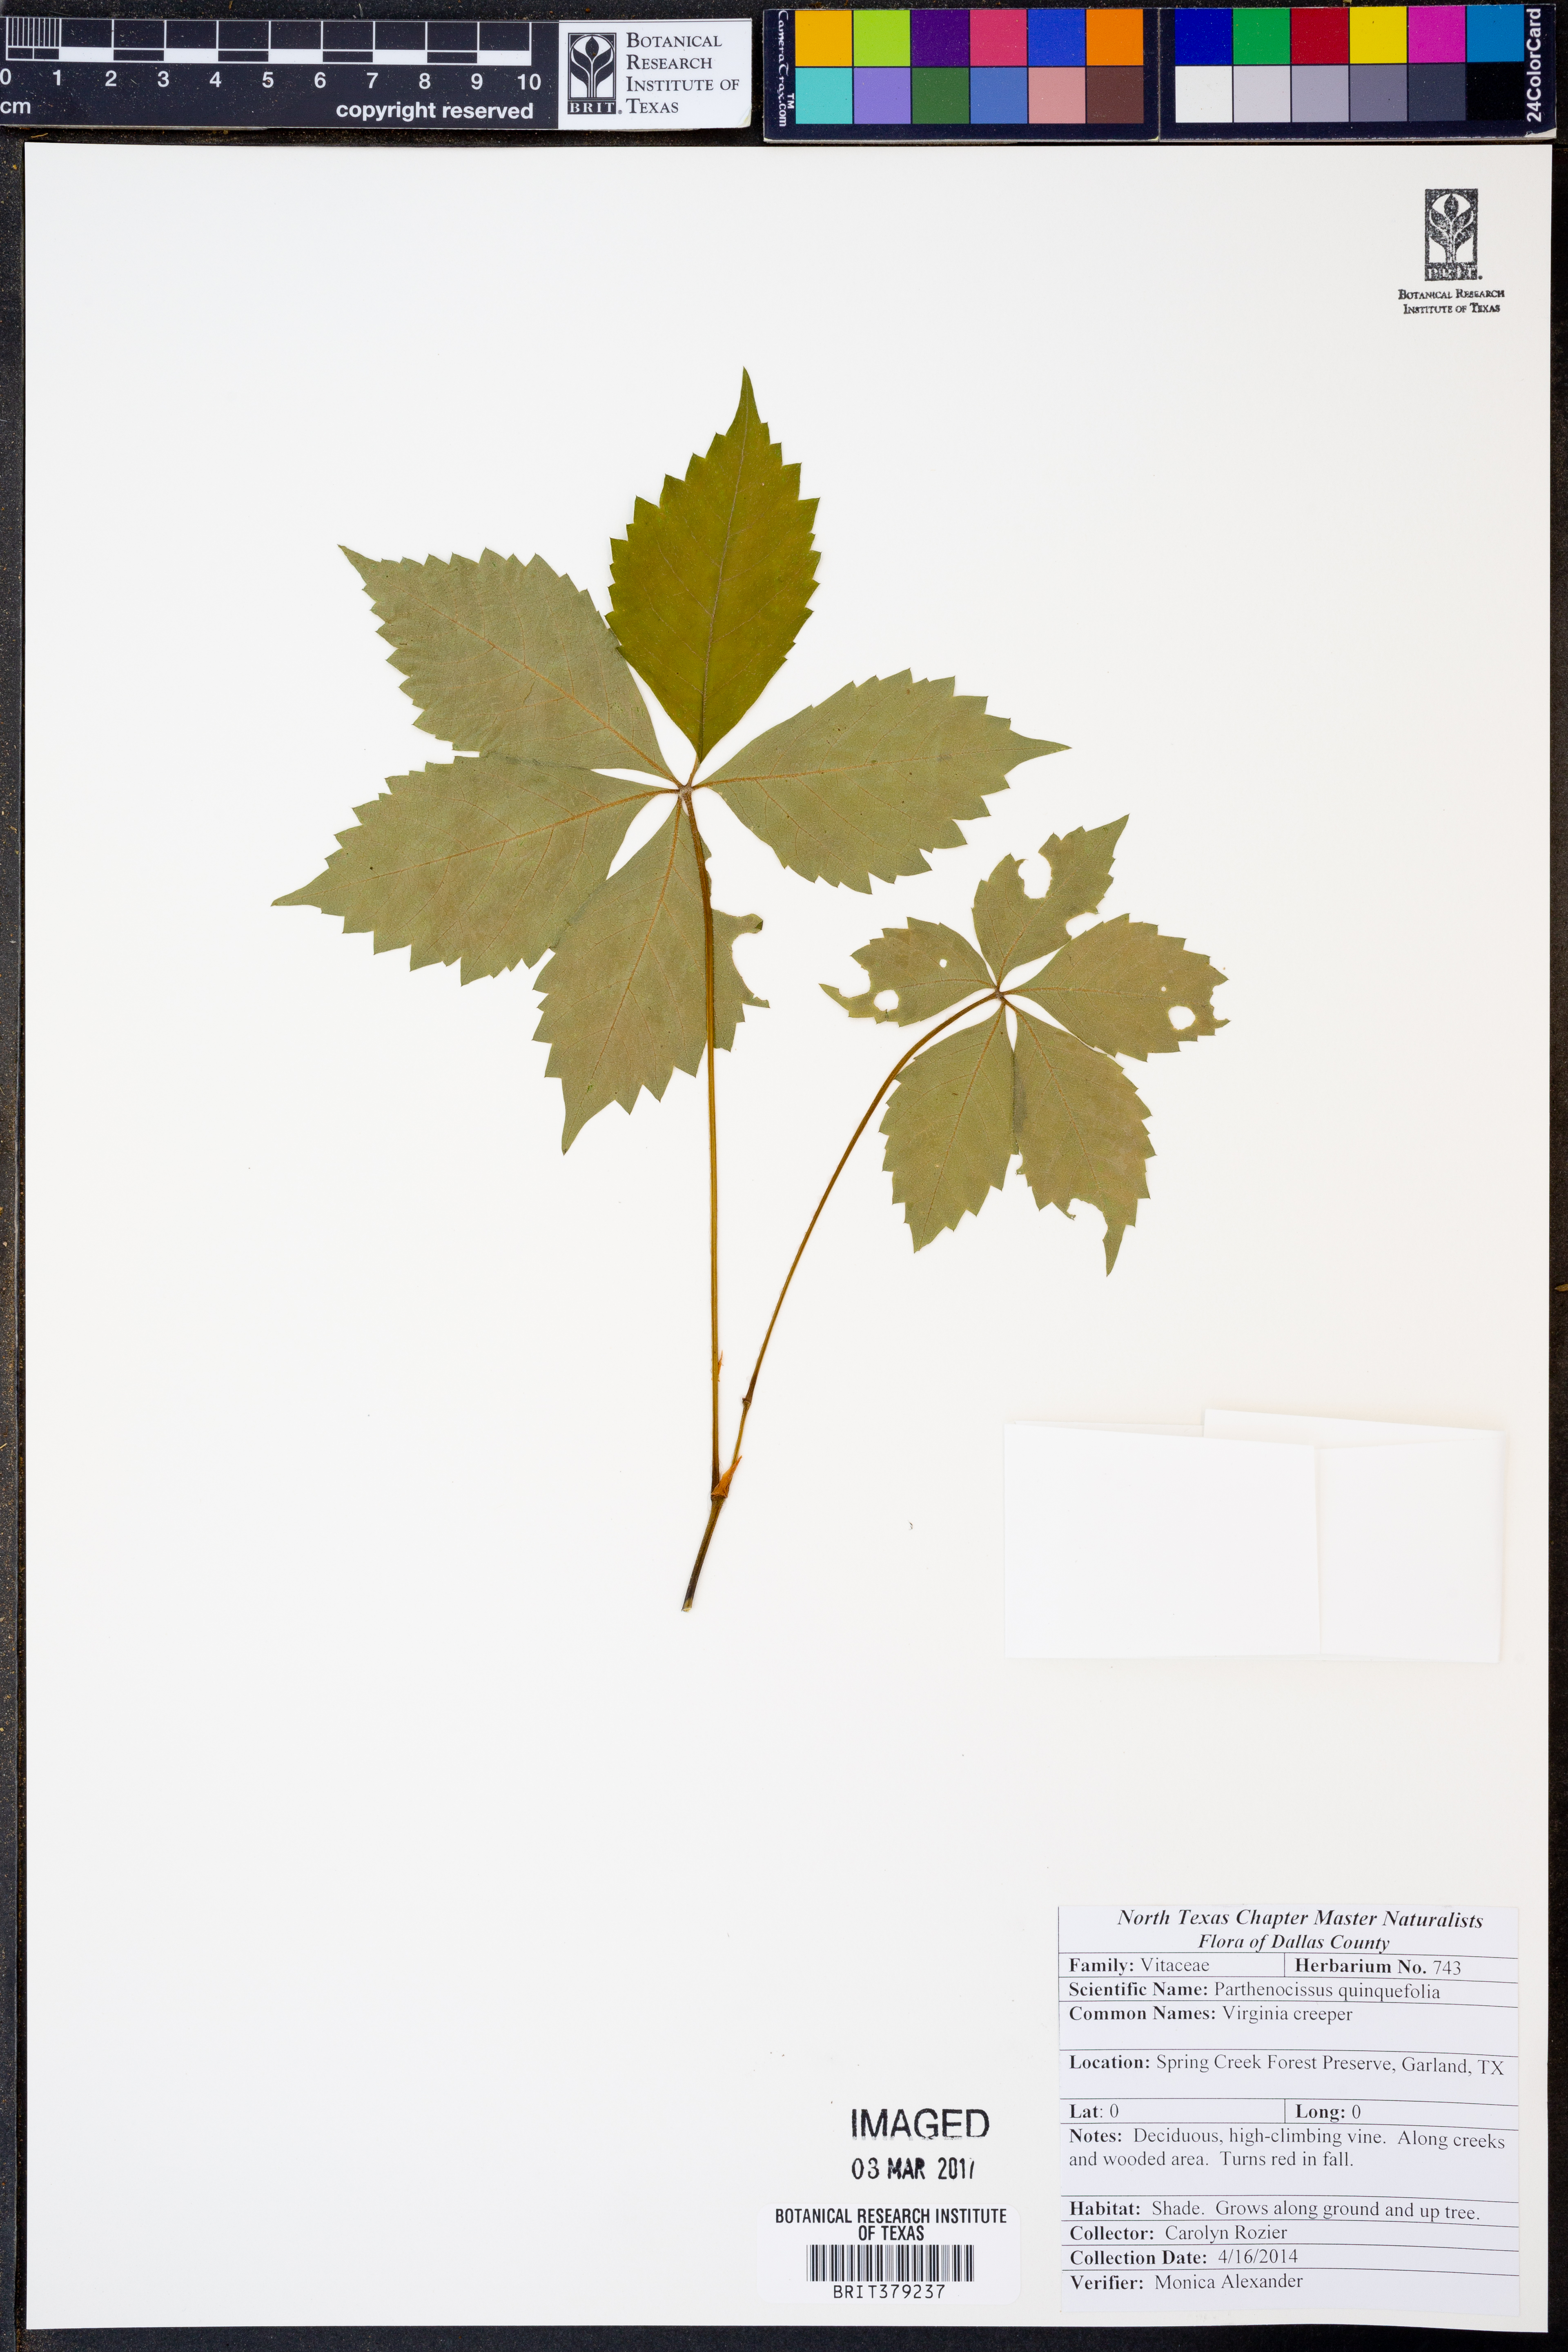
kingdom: Plantae
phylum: Tracheophyta
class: Magnoliopsida
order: Vitales
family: Vitaceae
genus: Parthenocissus
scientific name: Parthenocissus quinquefolia
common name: Virginia-creeper
